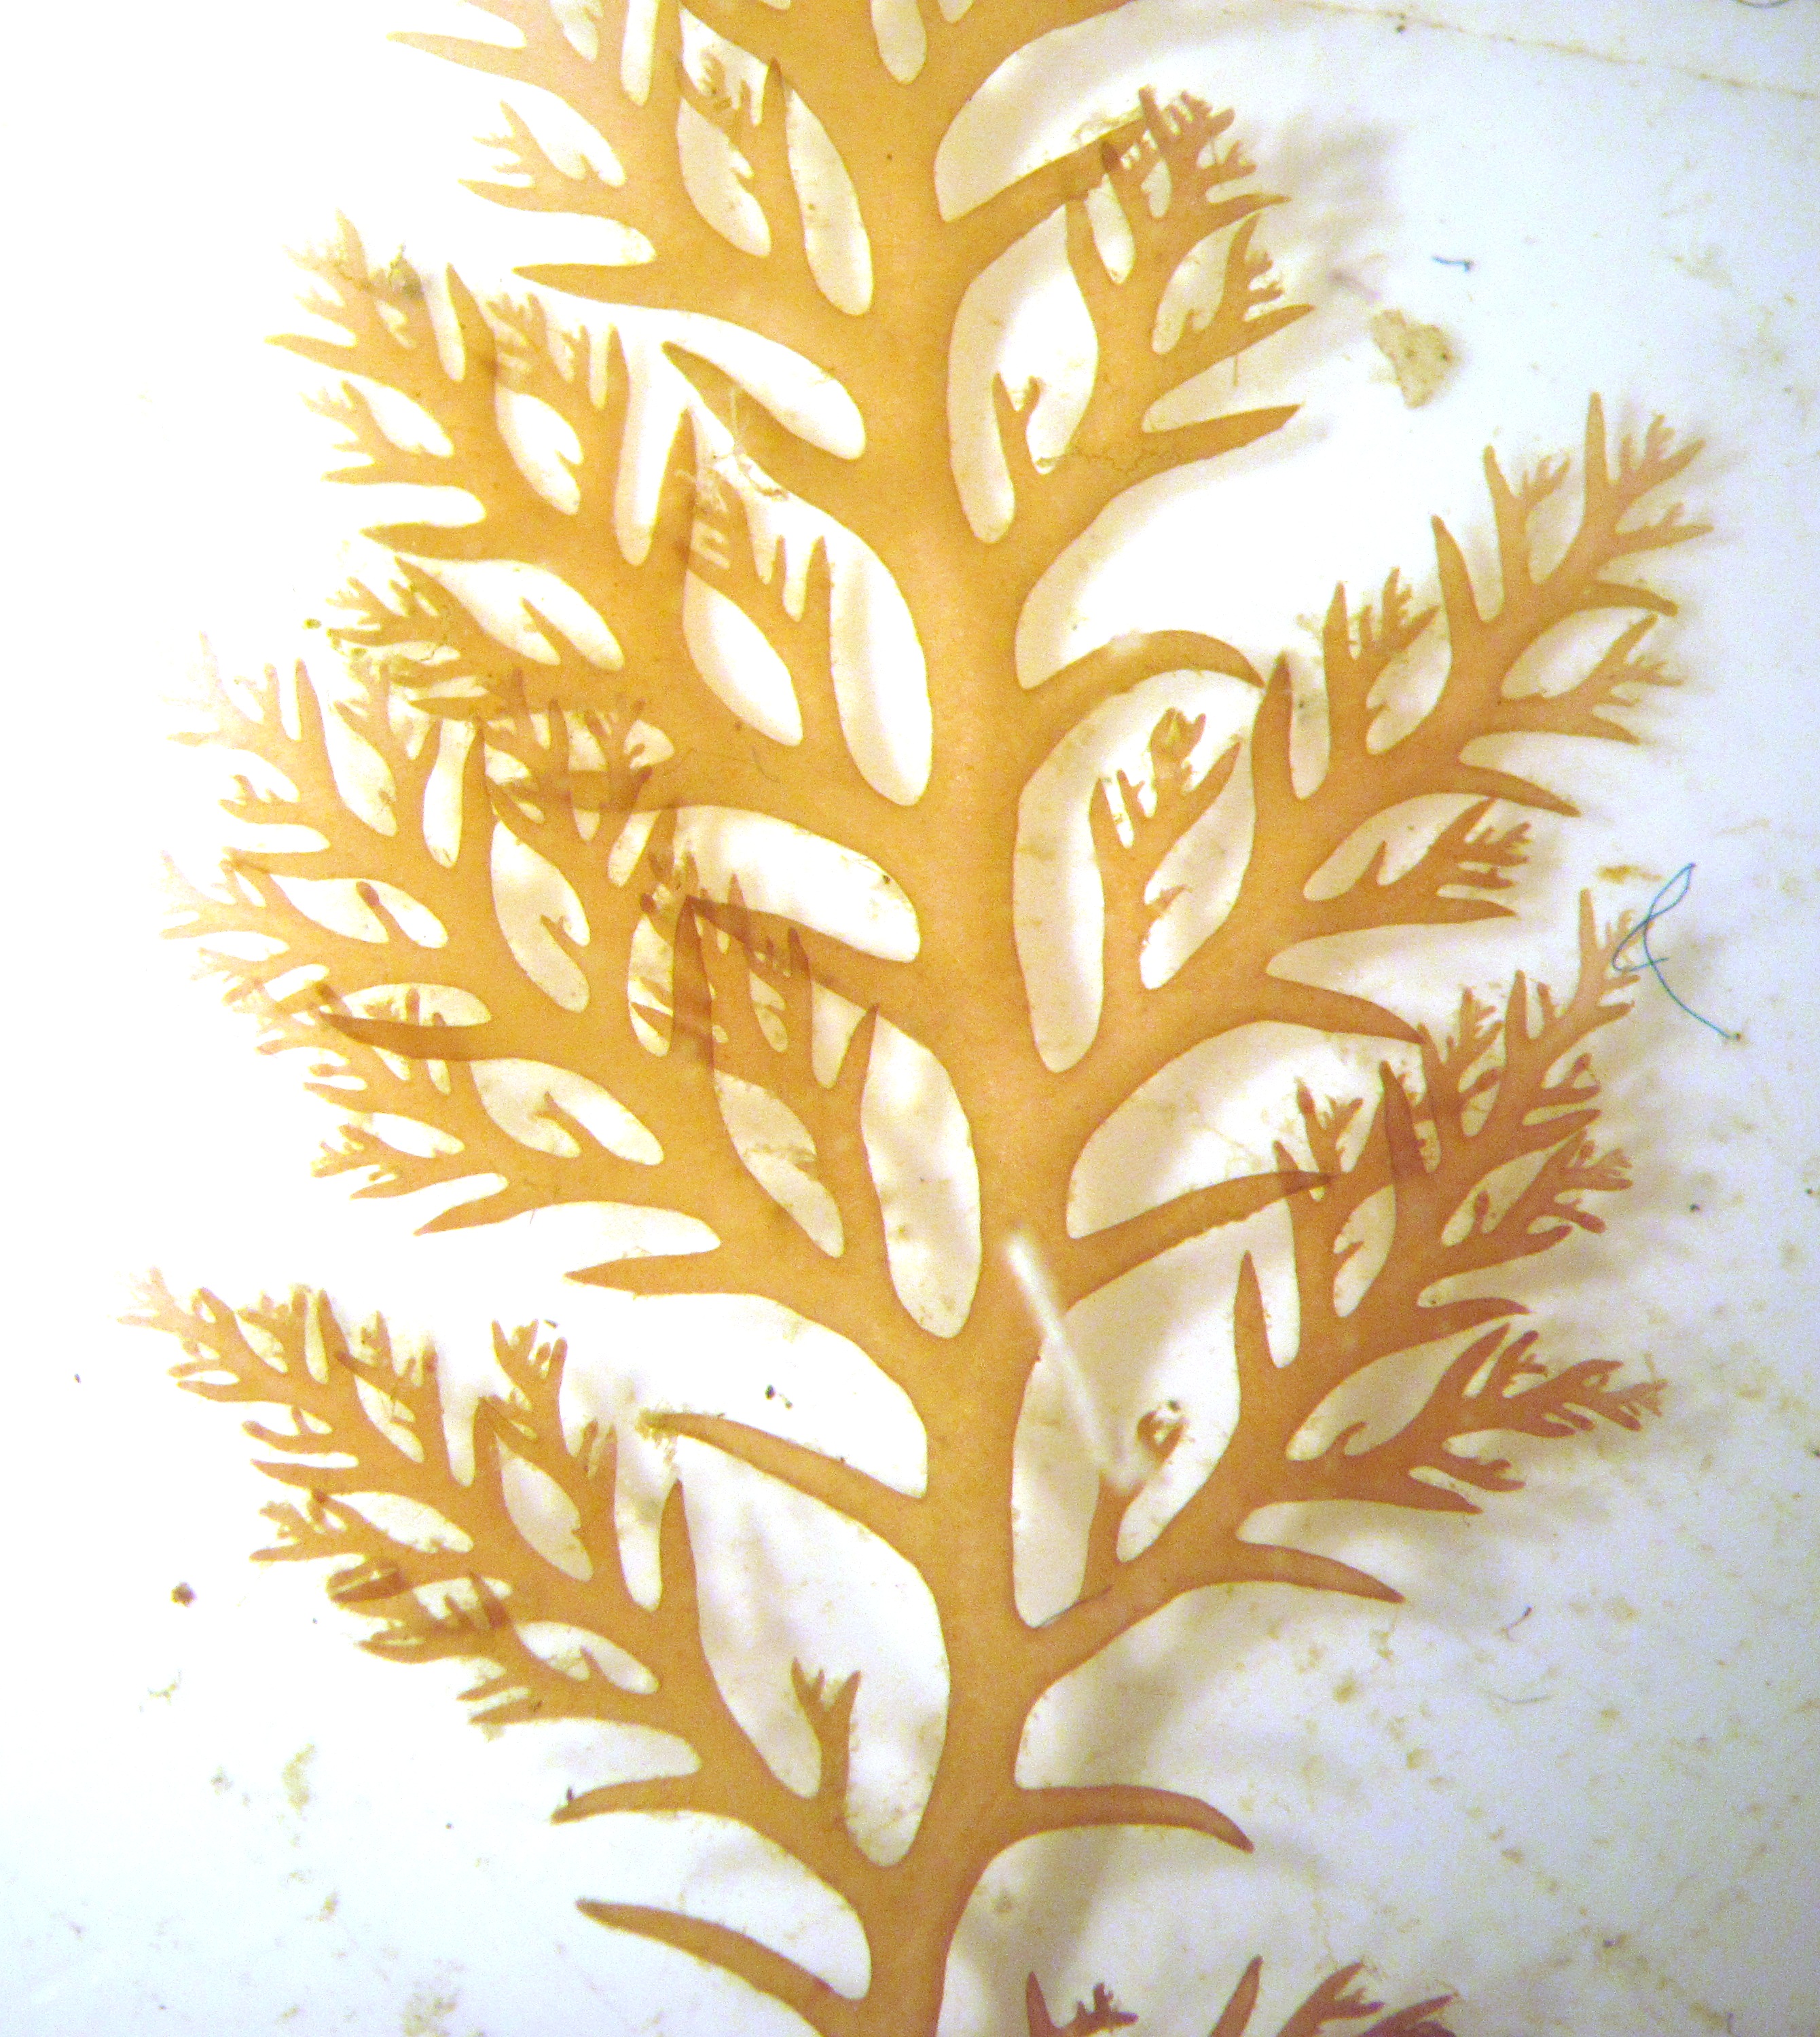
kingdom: Plantae
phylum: Rhodophyta
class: Florideophyceae
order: Plocamiales
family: Plocamiaceae
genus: Plocamium
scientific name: Plocamium angustum
